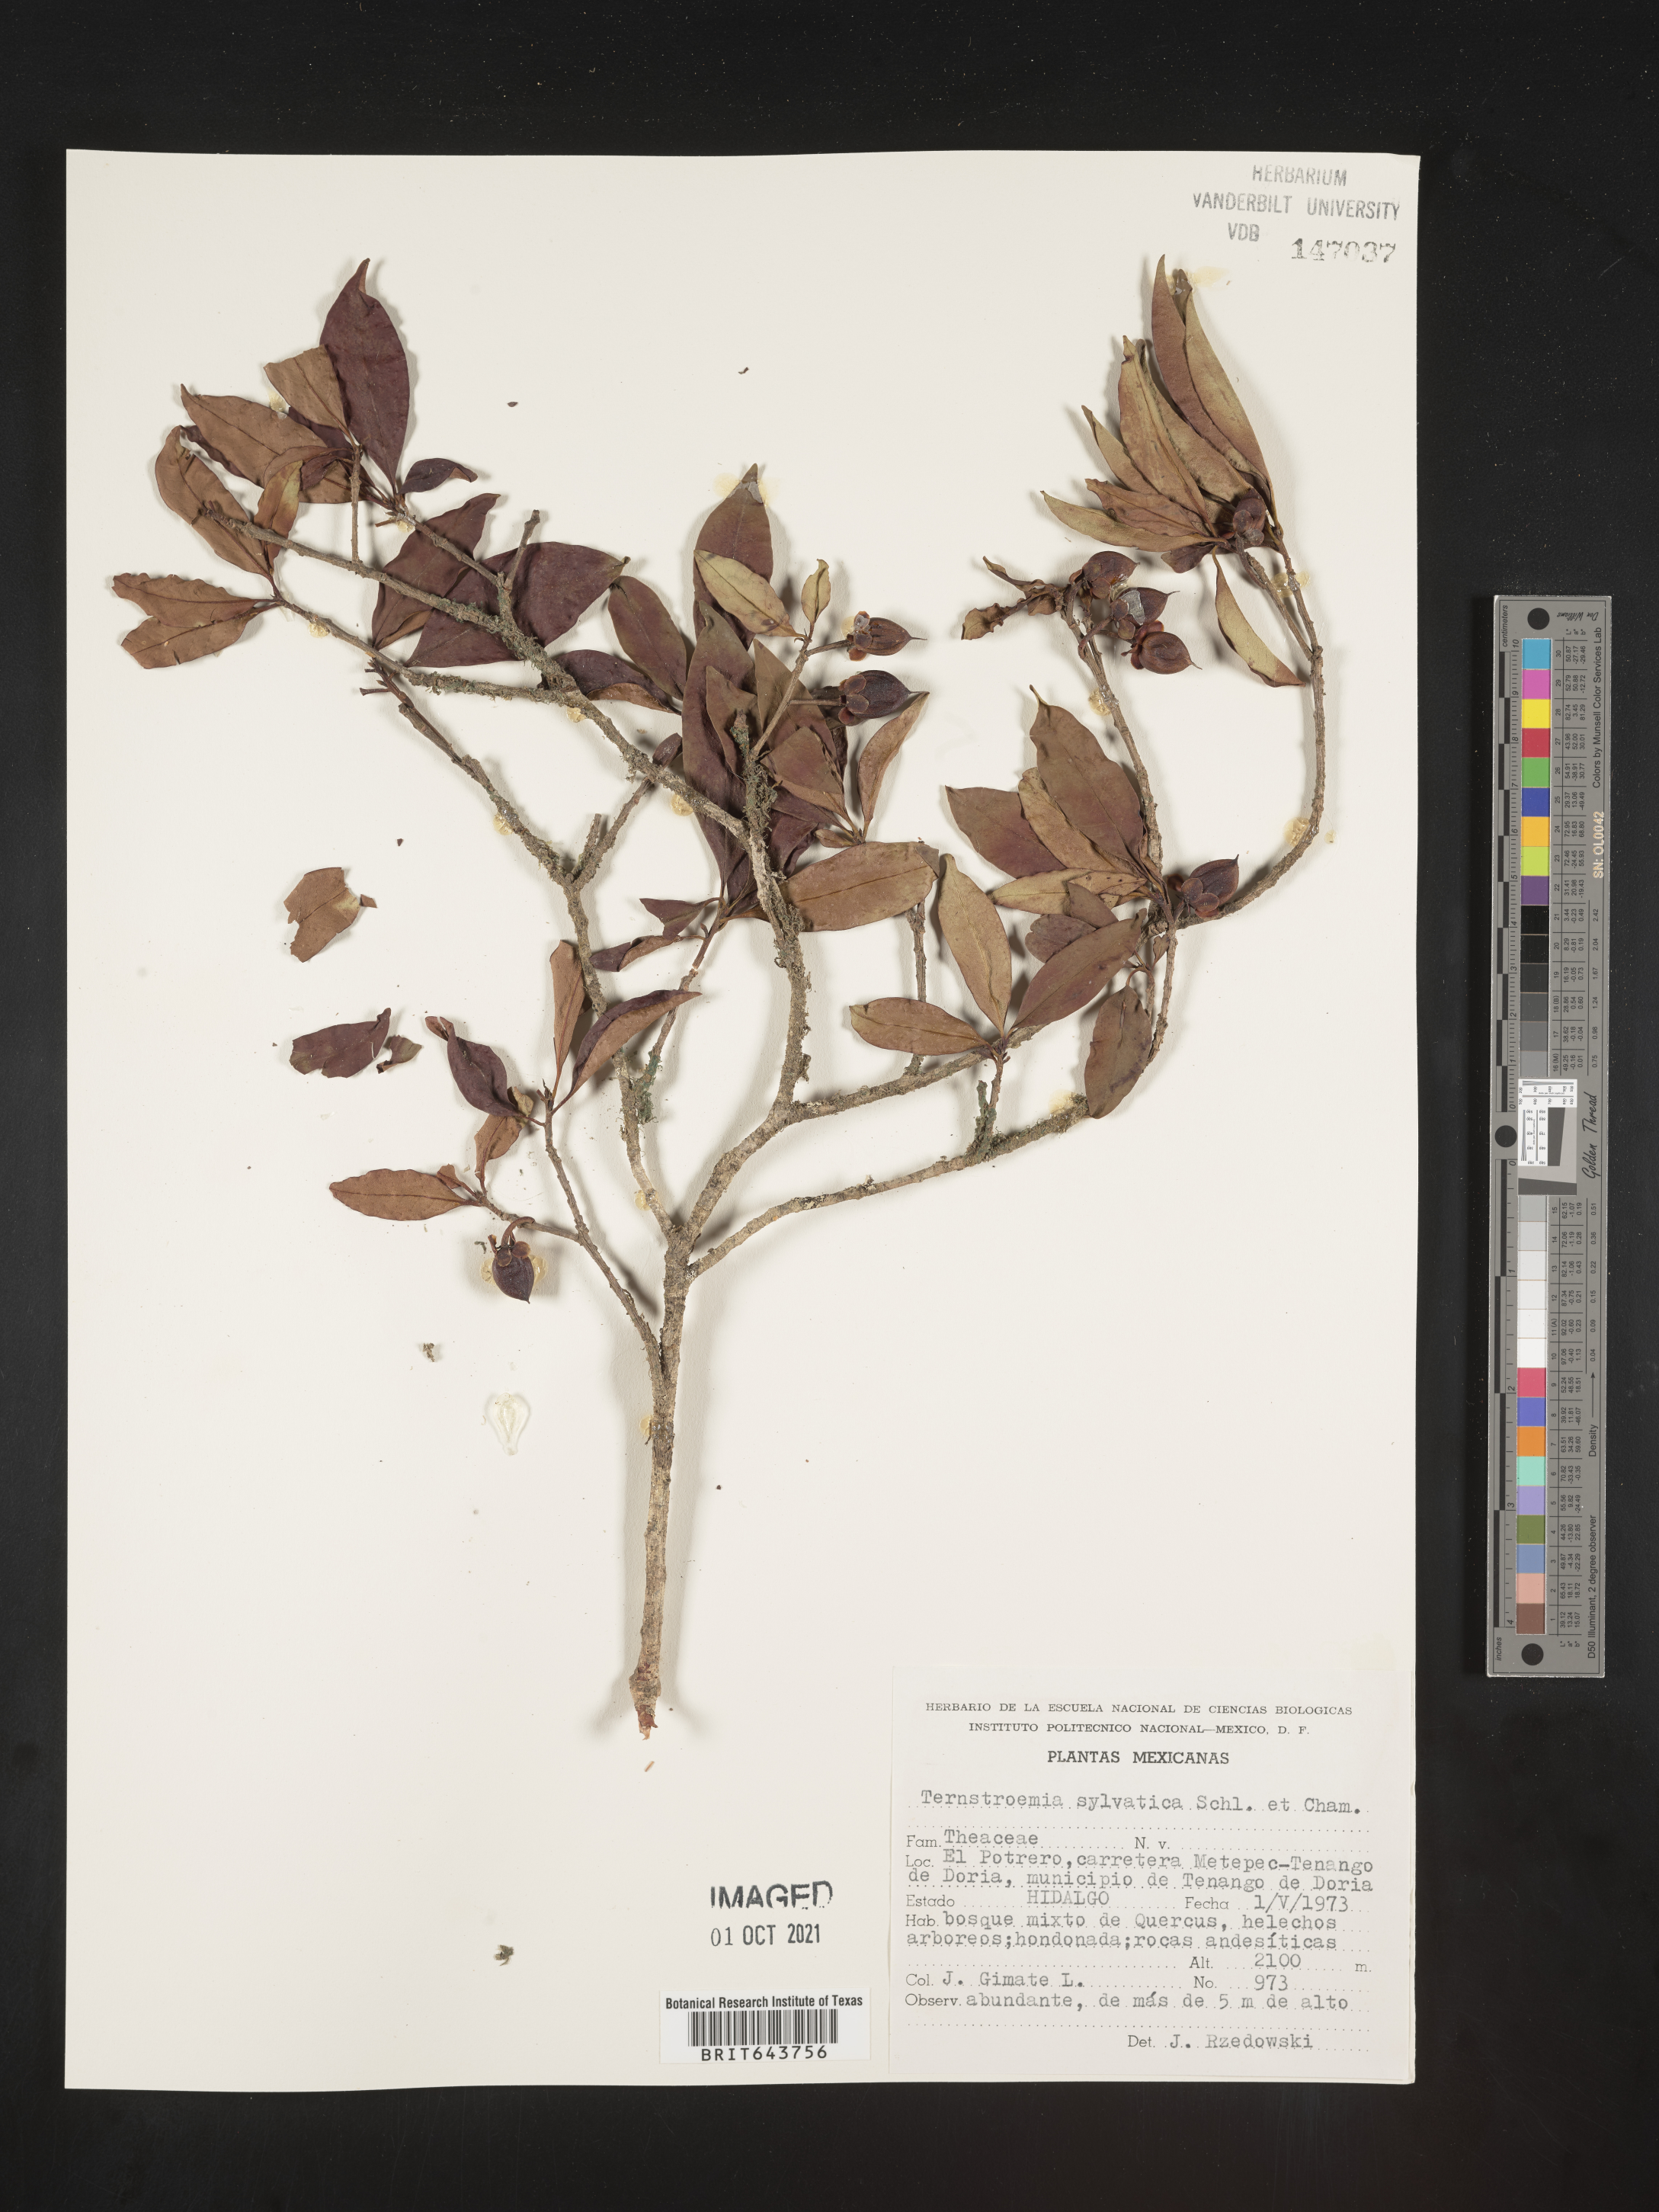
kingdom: Plantae
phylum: Tracheophyta
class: Magnoliopsida
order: Ericales
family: Pentaphylacaceae
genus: Ternstroemia
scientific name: Ternstroemia
